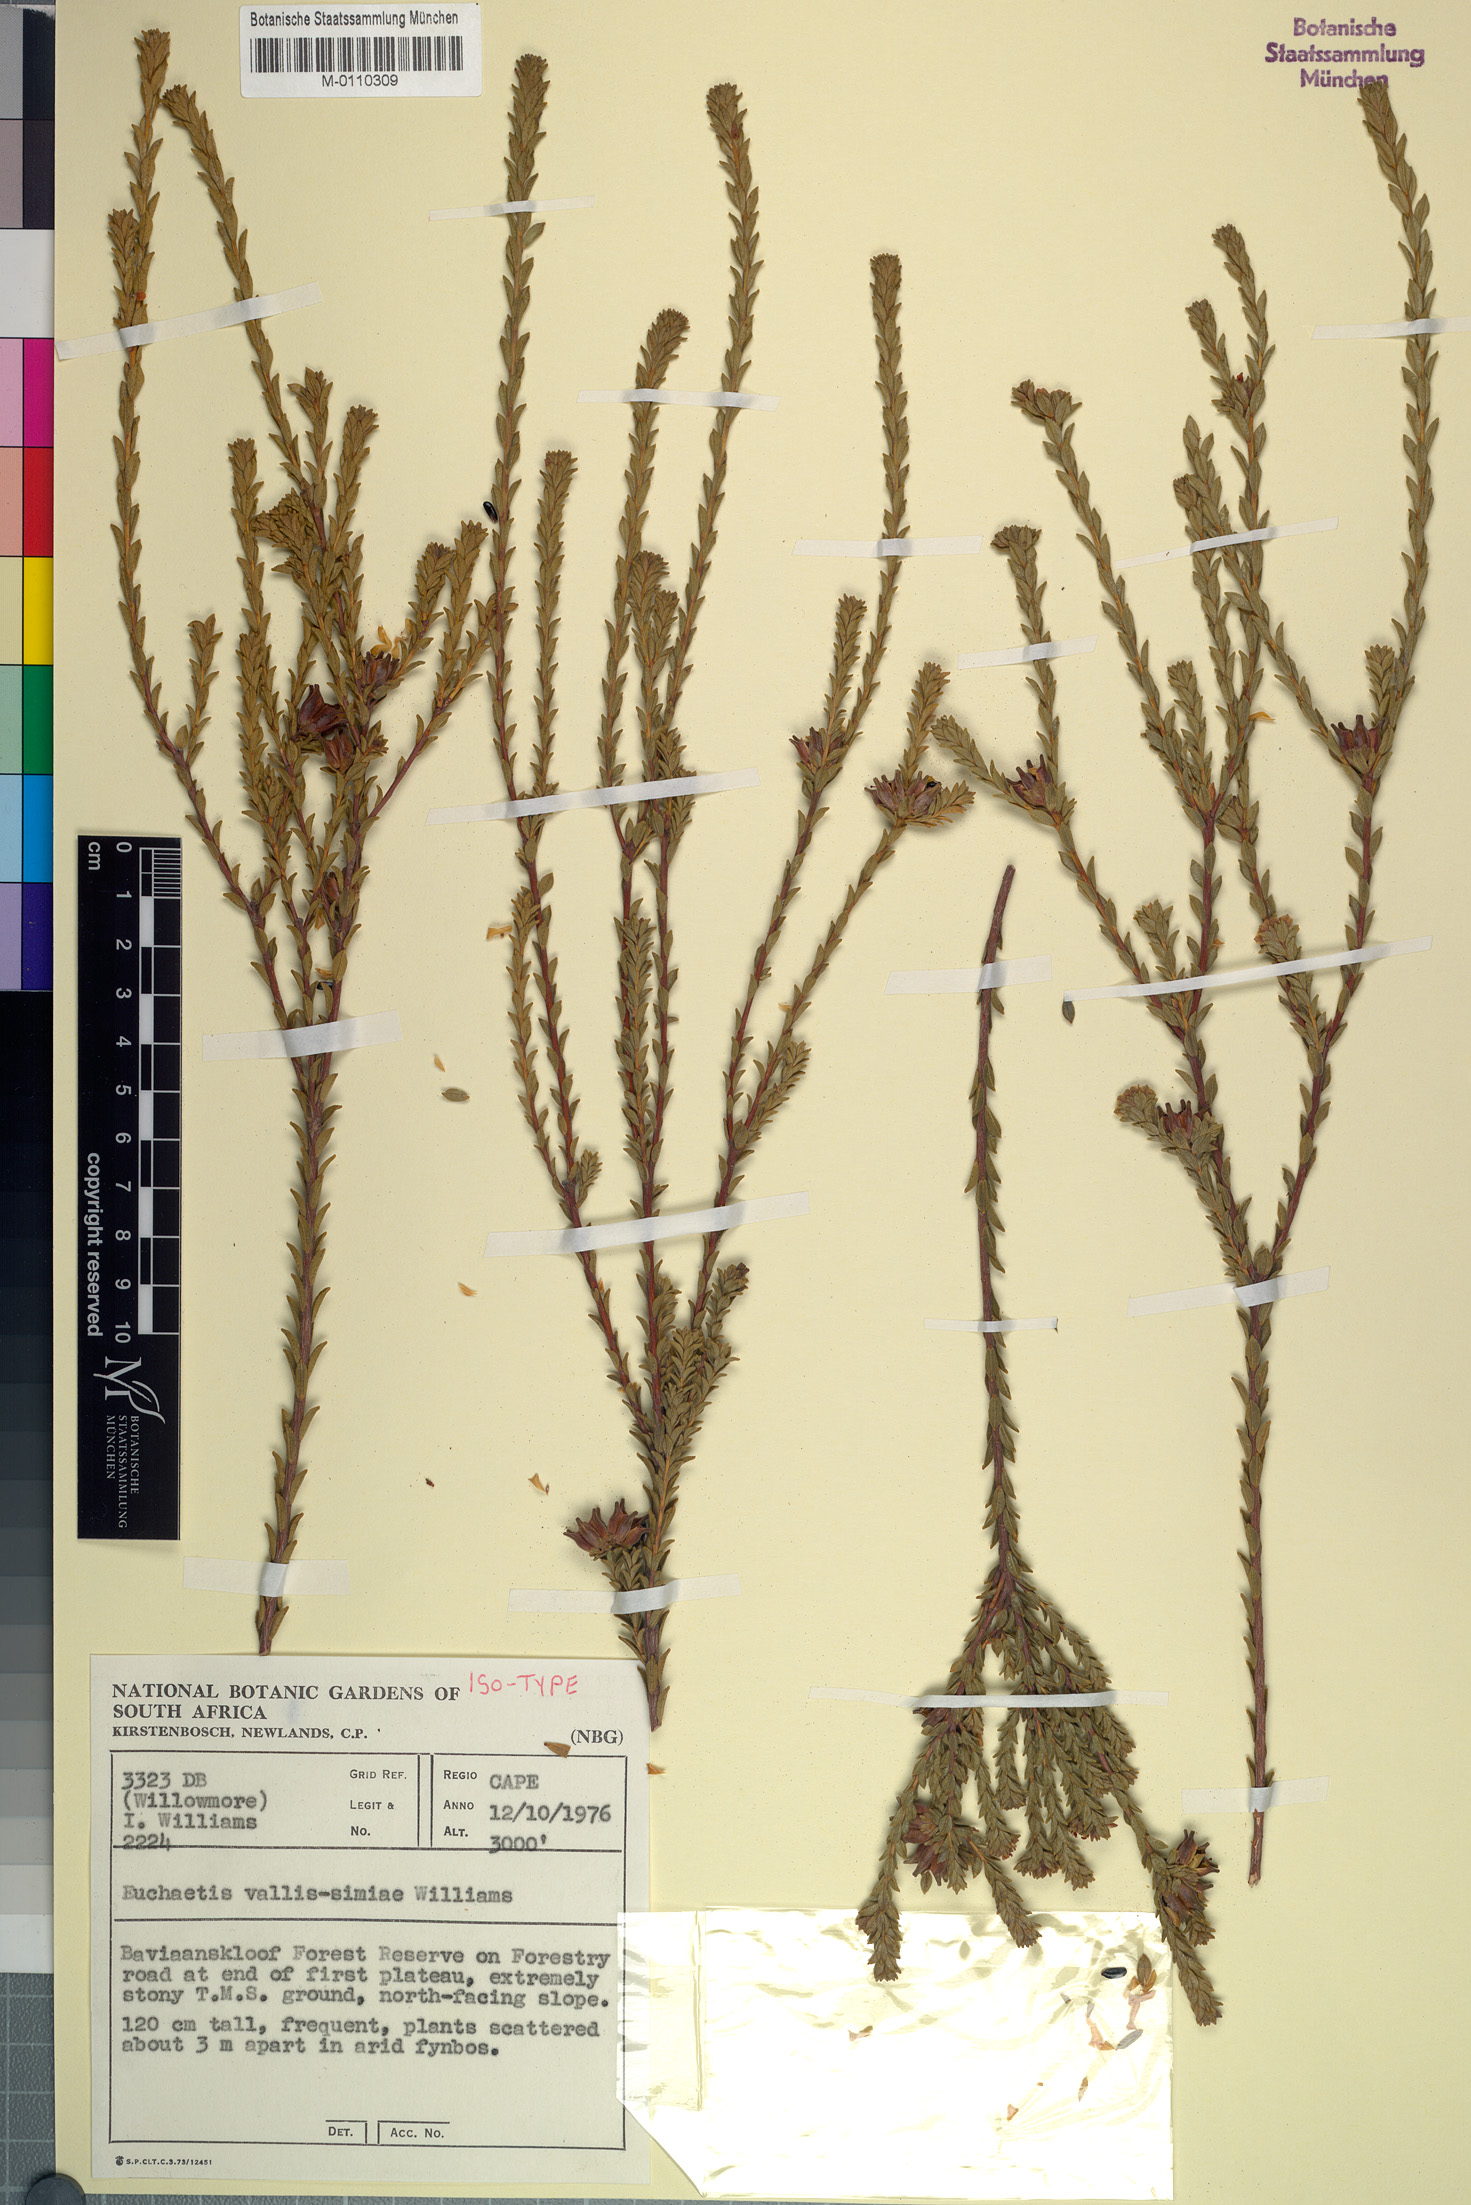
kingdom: Plantae
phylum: Tracheophyta
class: Magnoliopsida
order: Sapindales
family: Rutaceae
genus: Euchaetis
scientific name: Euchaetis vallis-simiae
